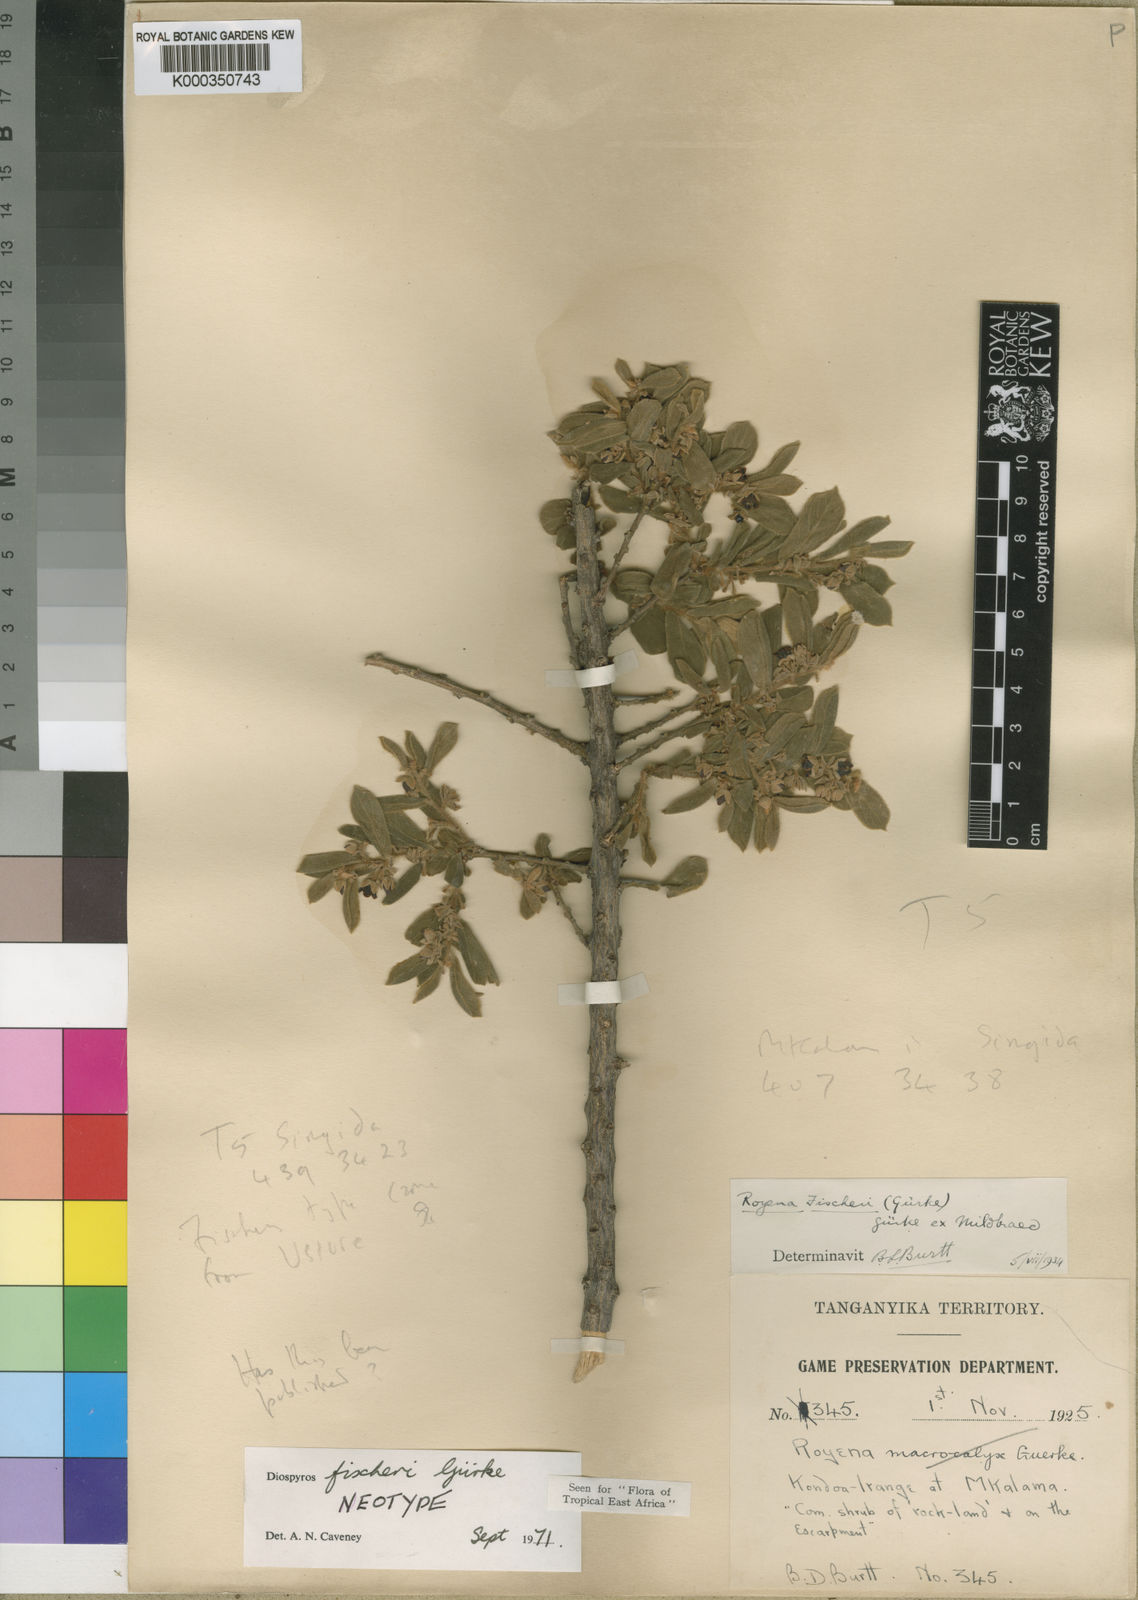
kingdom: Plantae
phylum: Tracheophyta
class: Magnoliopsida
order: Ericales
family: Ebenaceae
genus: Diospyros
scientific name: Diospyros
